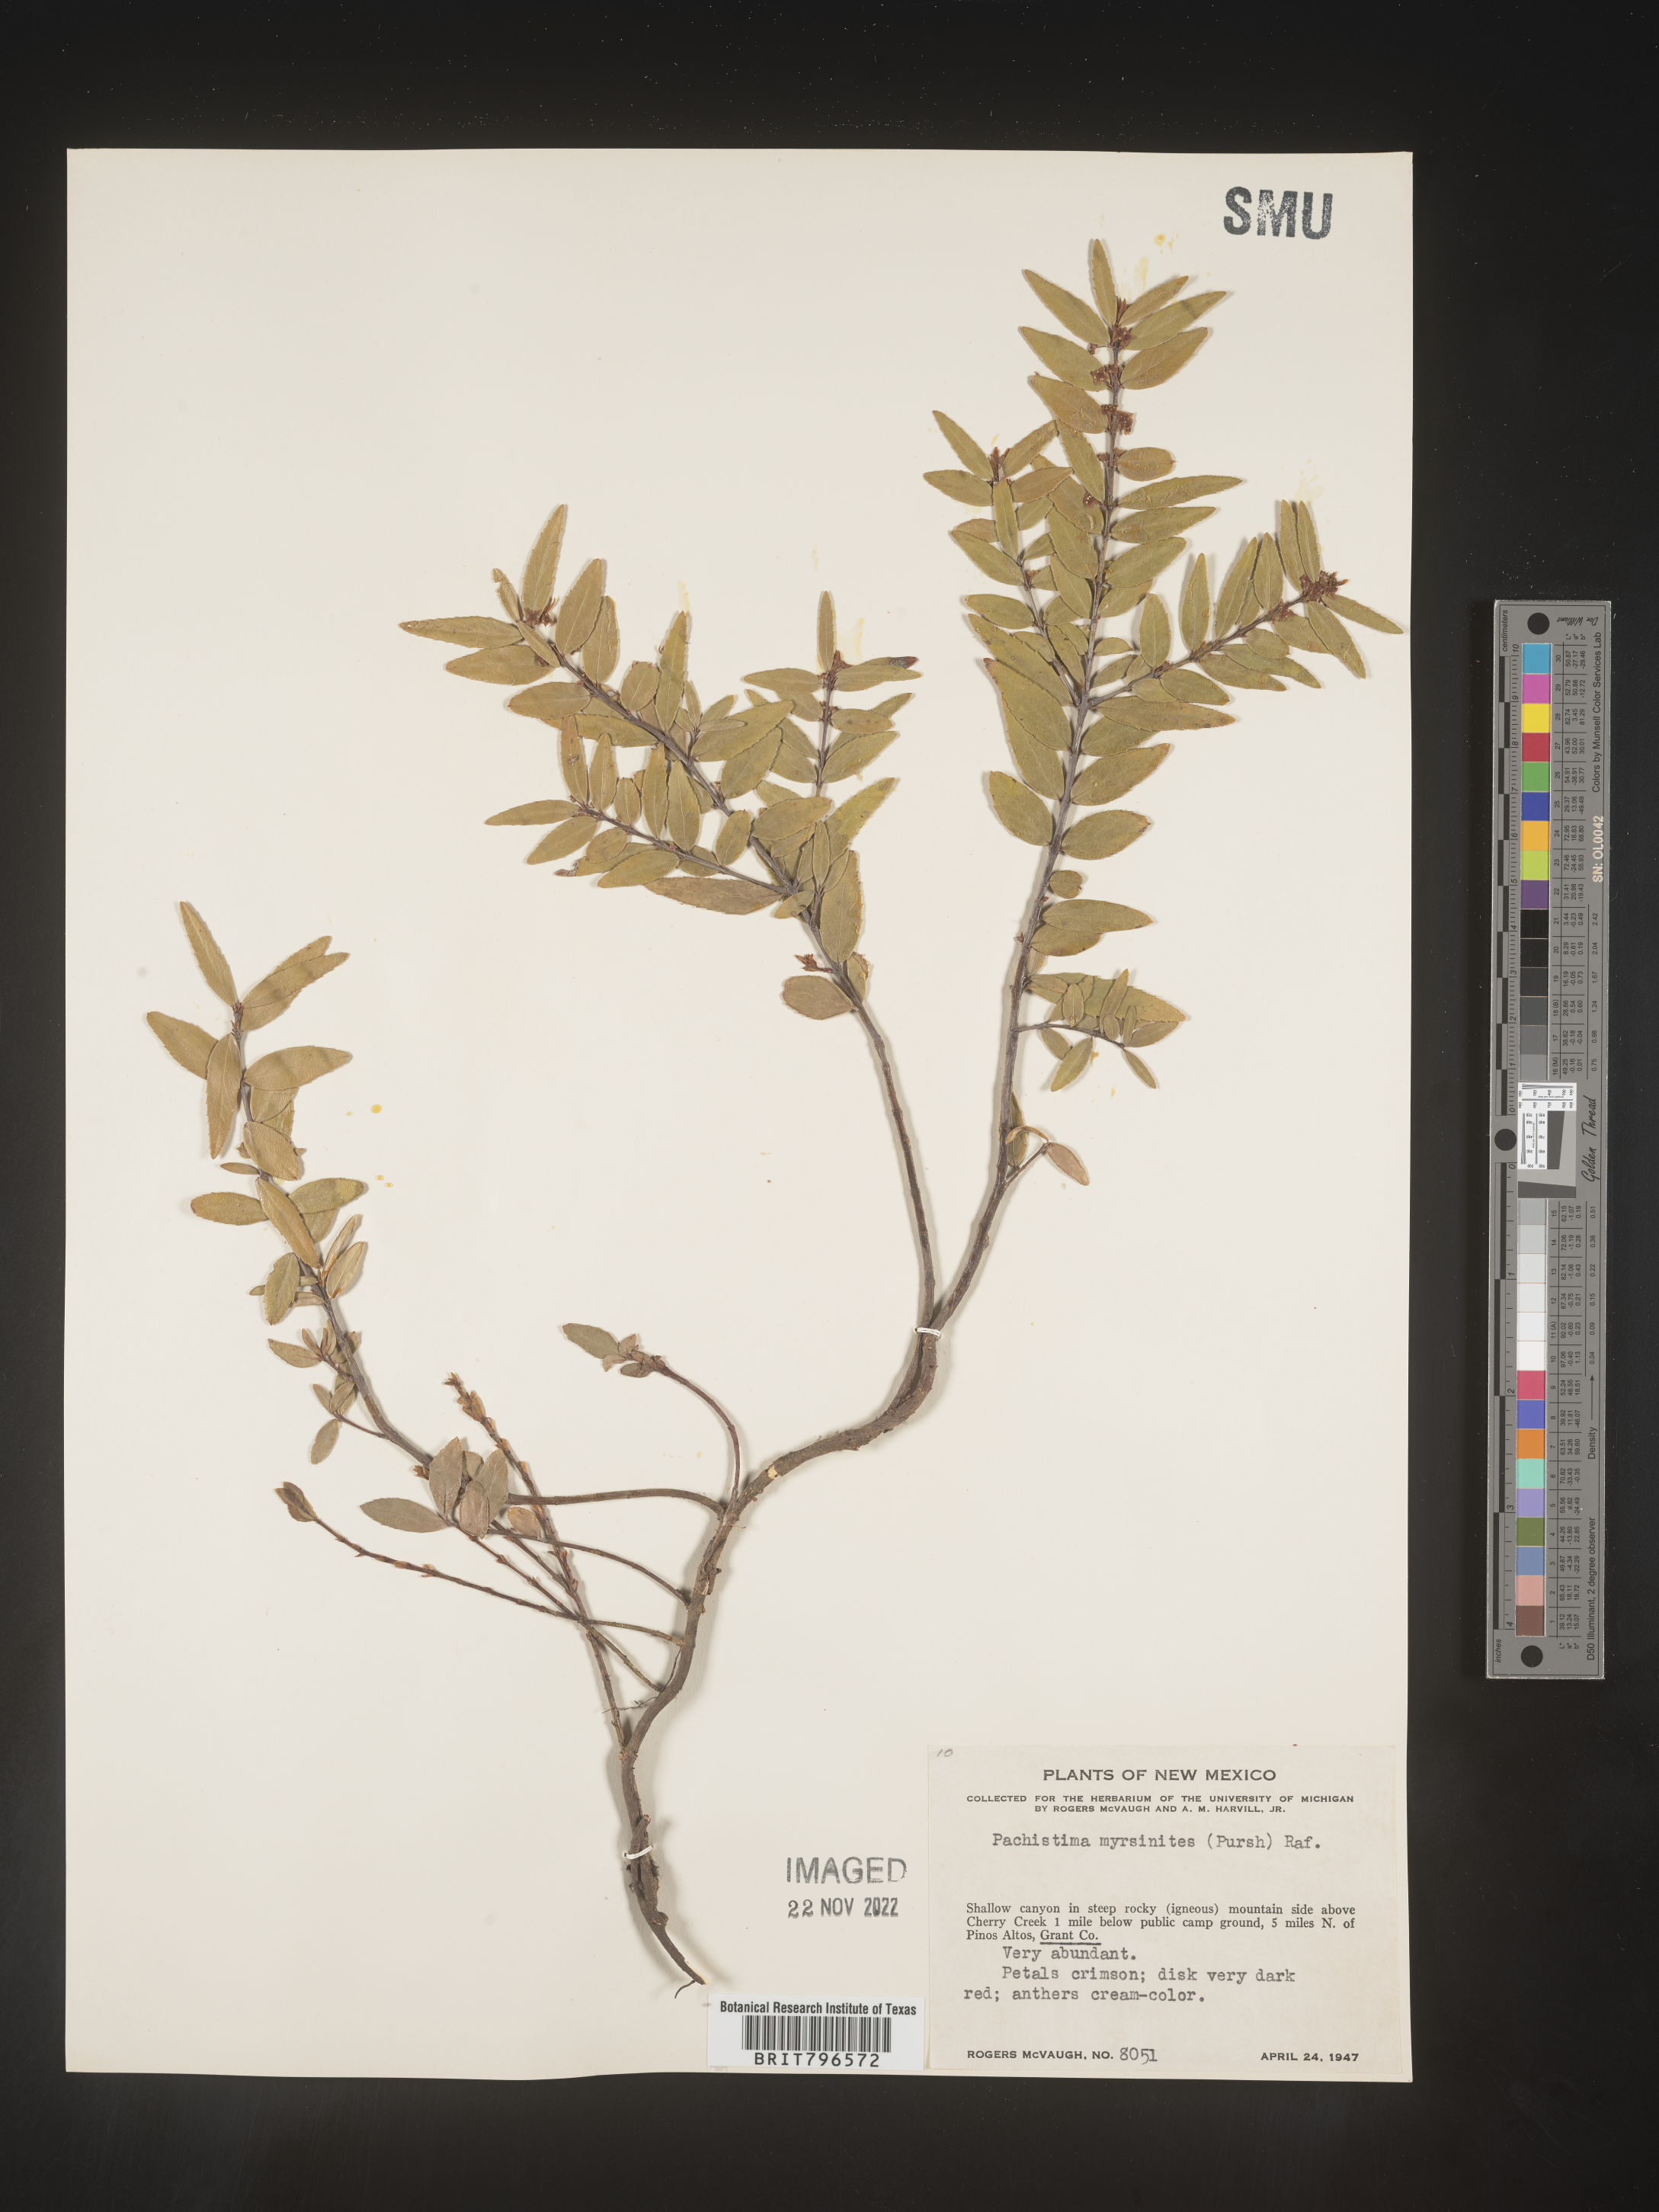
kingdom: Plantae
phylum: Tracheophyta
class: Magnoliopsida
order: Celastrales
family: Celastraceae
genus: Paxistima
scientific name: Paxistima myrsinites
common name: Mountain-lover
